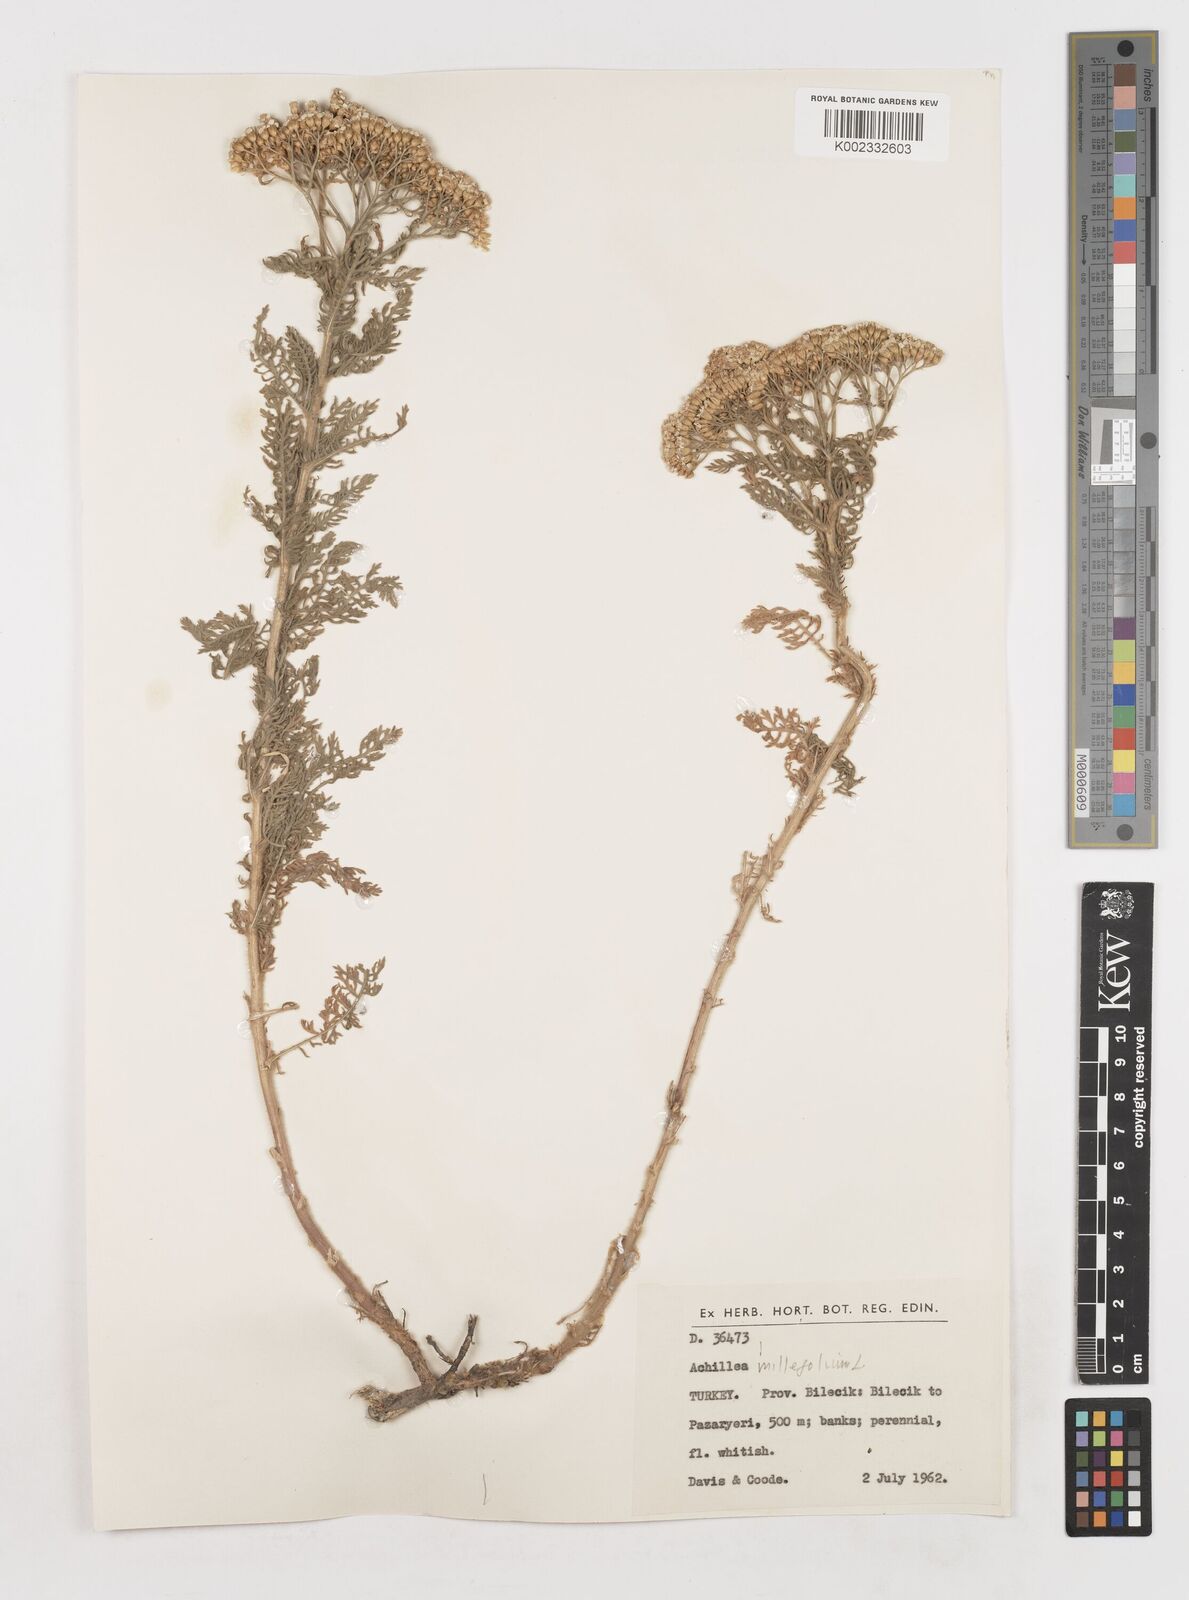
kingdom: Plantae
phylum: Tracheophyta
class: Magnoliopsida
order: Asterales
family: Asteraceae
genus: Achillea
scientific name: Achillea millefolium
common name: Yarrow
